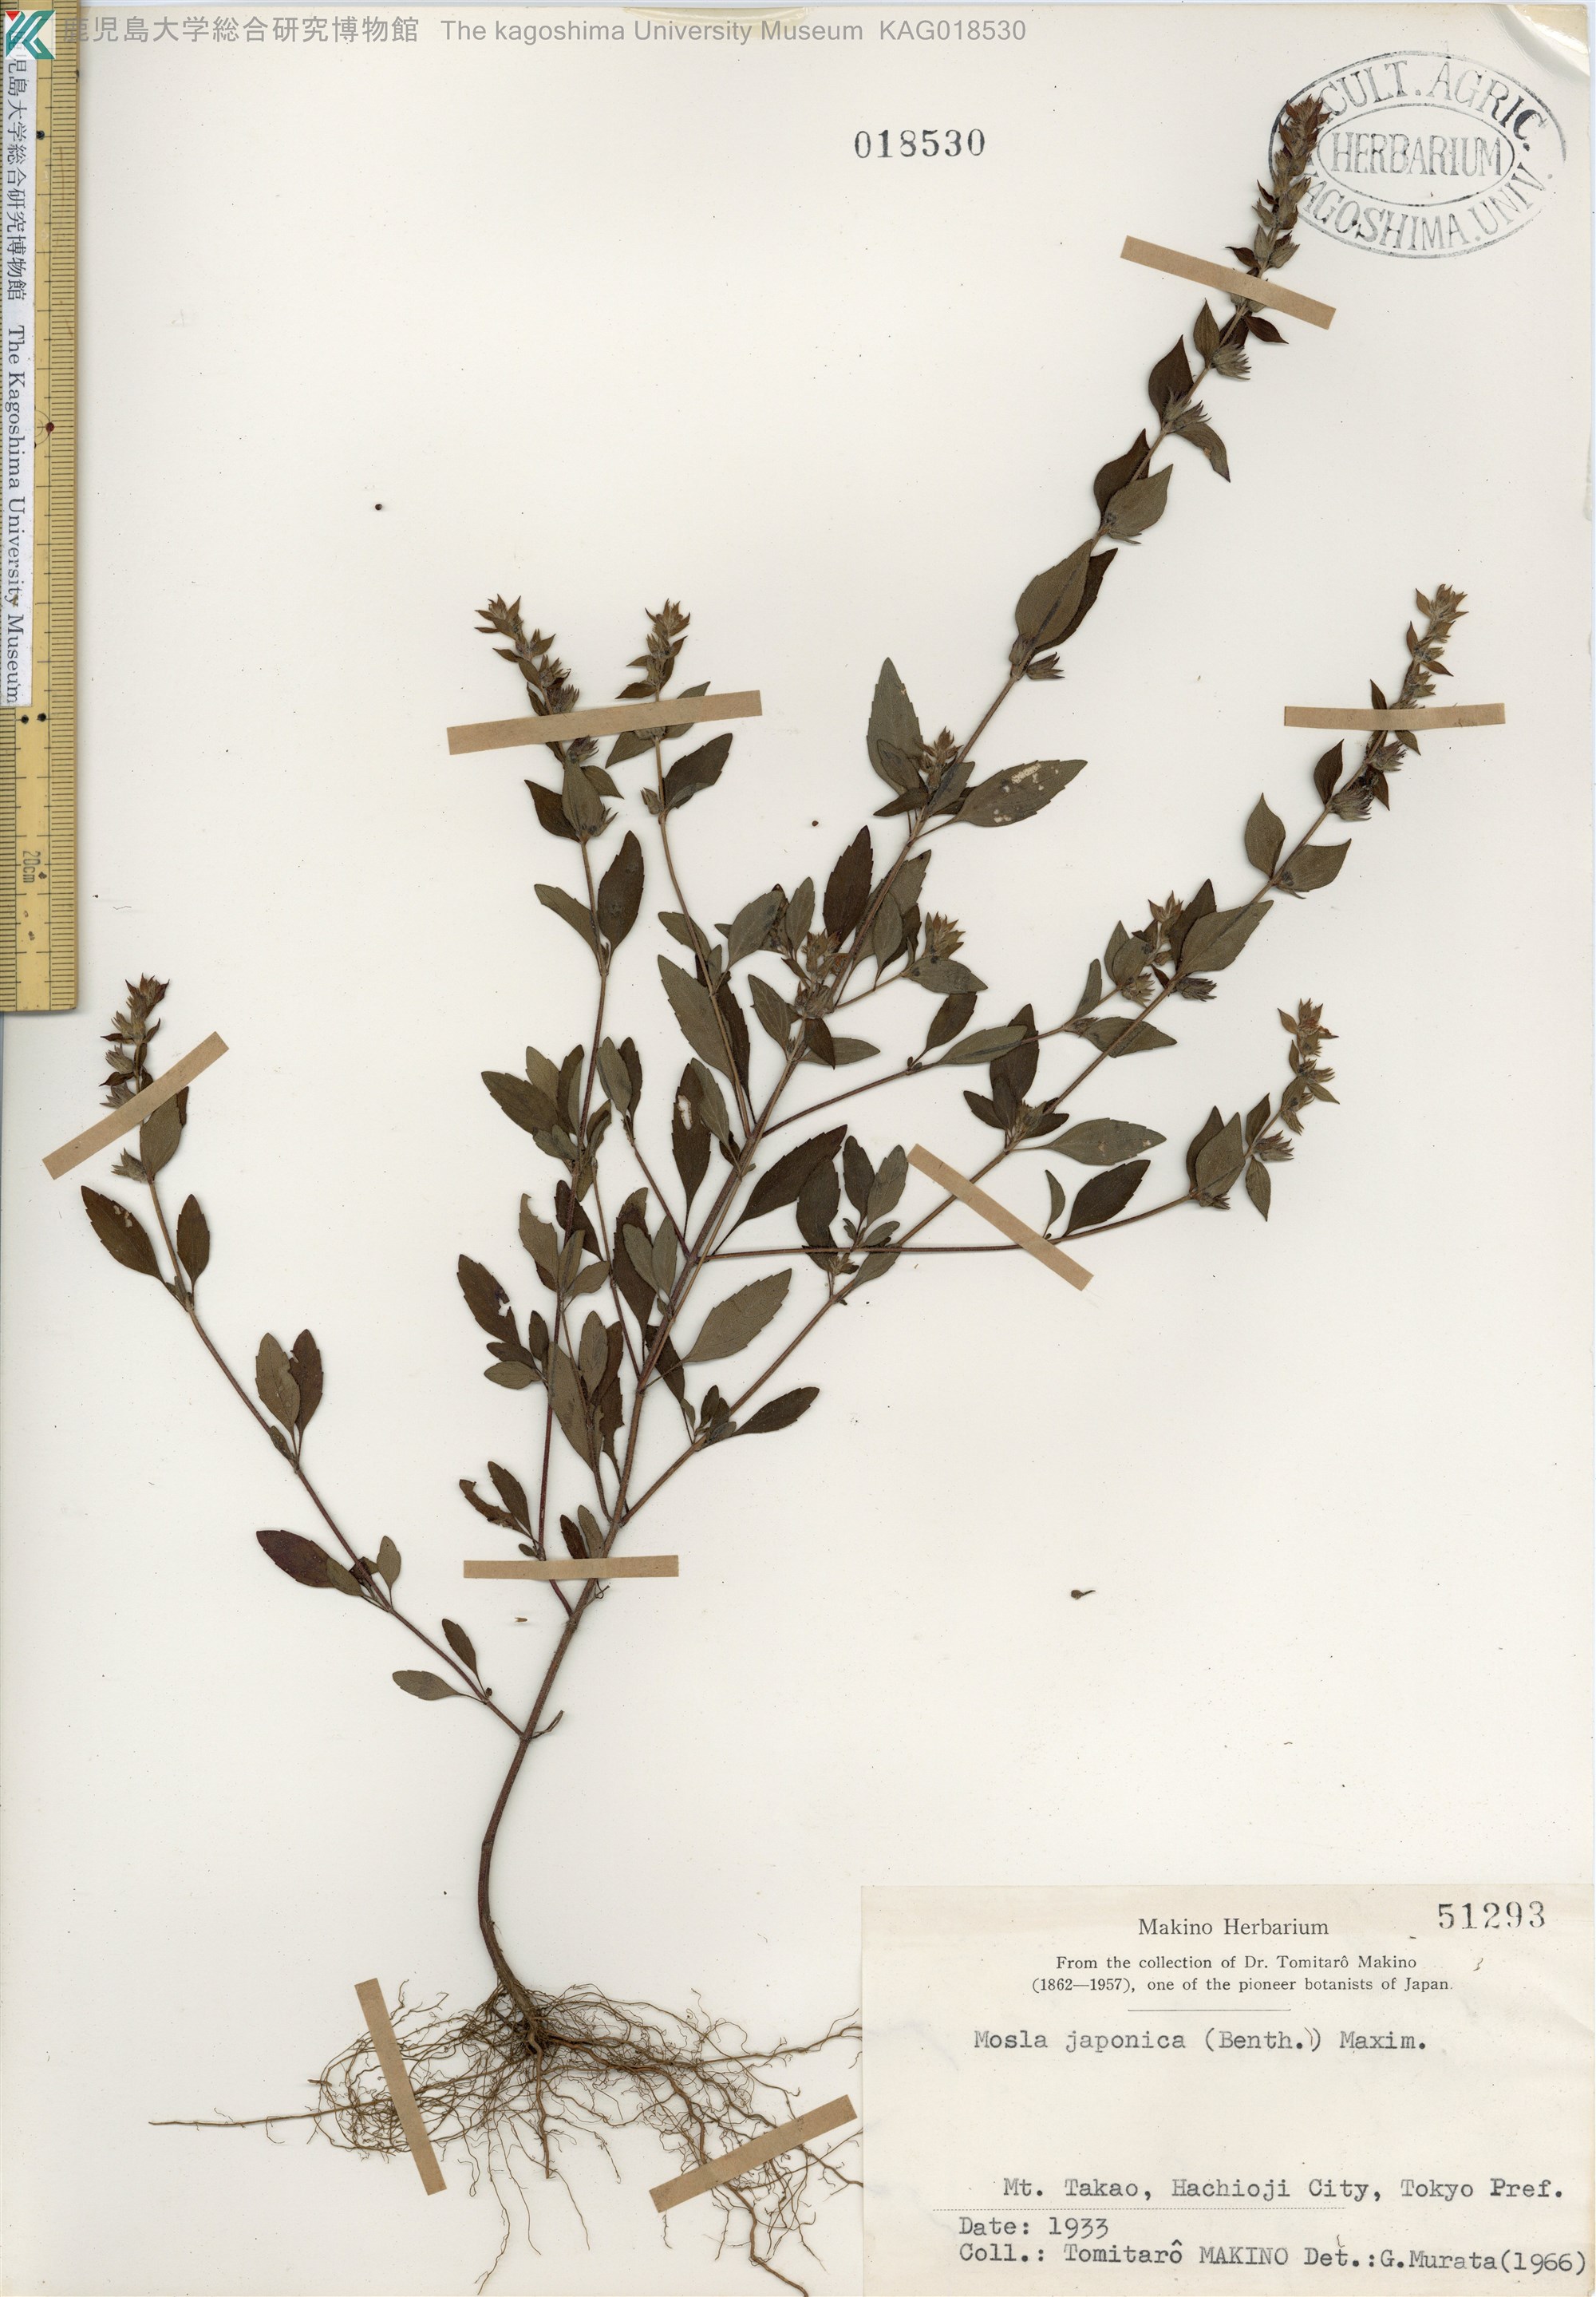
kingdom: Plantae
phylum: Tracheophyta
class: Magnoliopsida
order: Lamiales
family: Lamiaceae
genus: Mosla
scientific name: Mosla japonica
